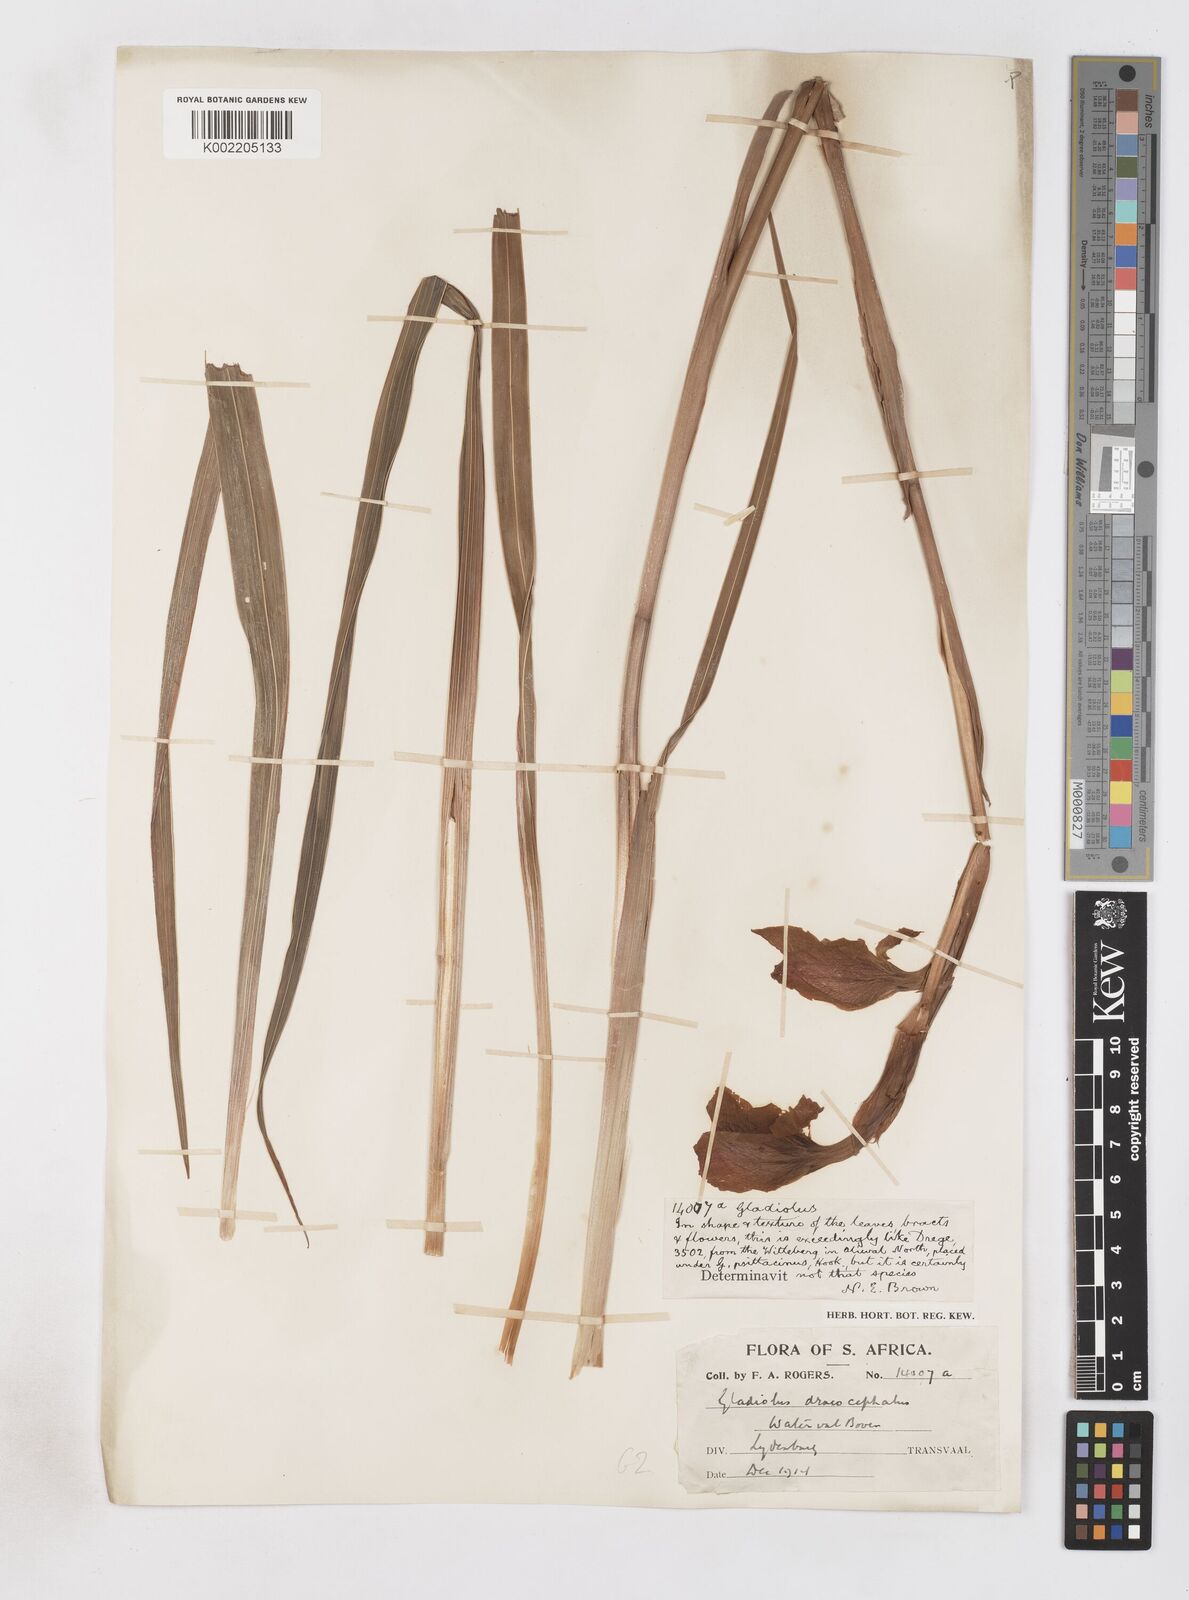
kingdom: Plantae
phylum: Tracheophyta
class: Liliopsida
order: Asparagales
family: Iridaceae
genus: Gladiolus
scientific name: Gladiolus dalenii
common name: Cornflag
